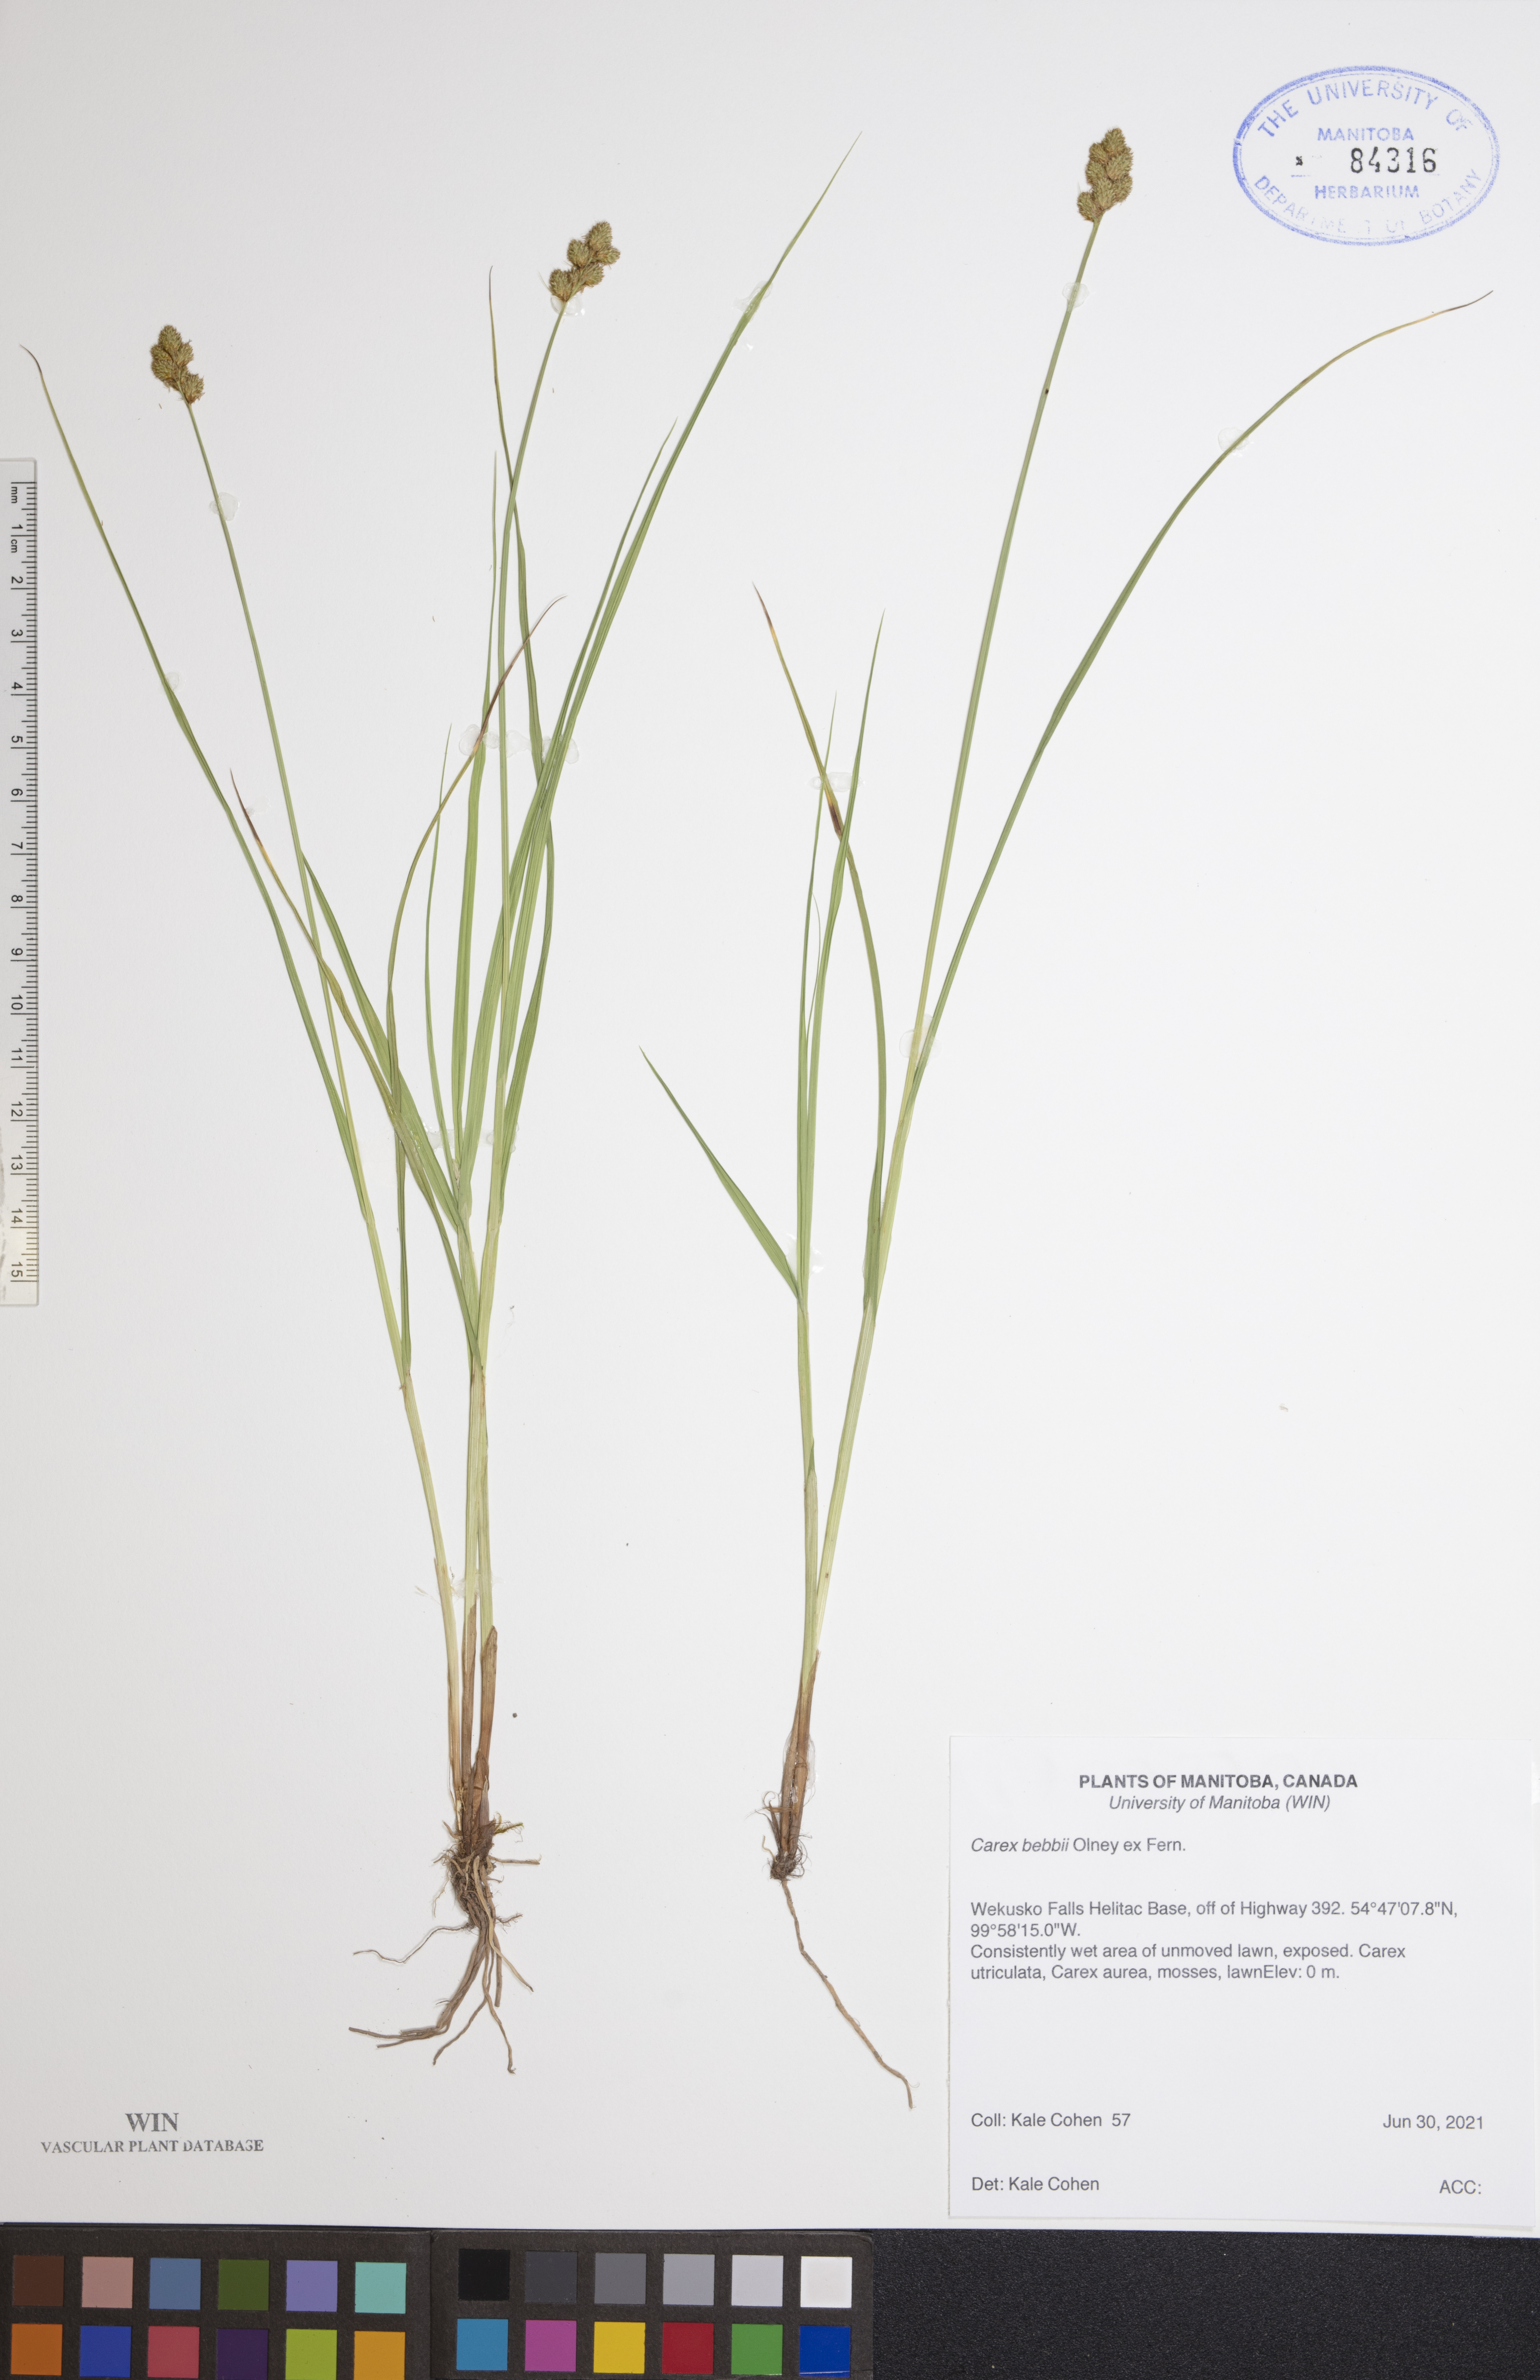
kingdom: Plantae
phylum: Tracheophyta
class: Liliopsida
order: Poales
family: Cyperaceae
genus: Carex
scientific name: Carex bebbii
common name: Bebb's sedge
